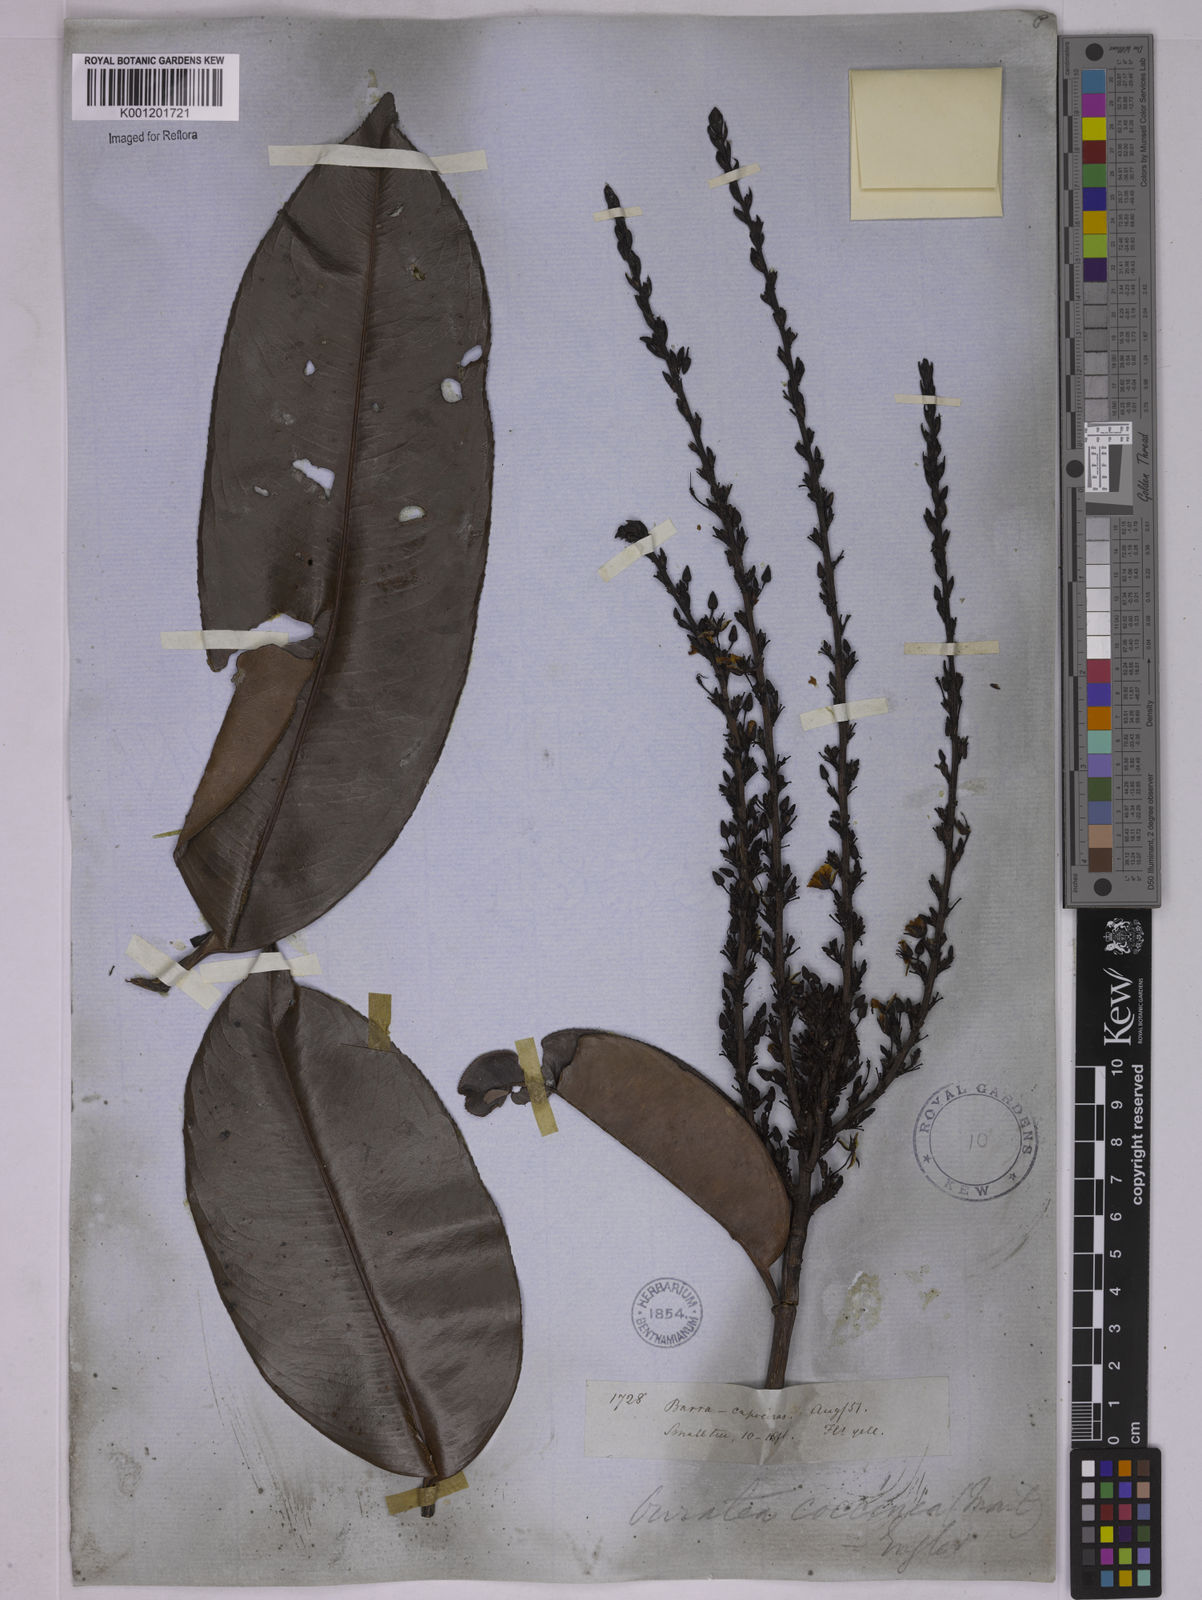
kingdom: Plantae
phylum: Tracheophyta
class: Magnoliopsida
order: Malpighiales
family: Ochnaceae
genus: Ouratea
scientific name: Ouratea coccinea
